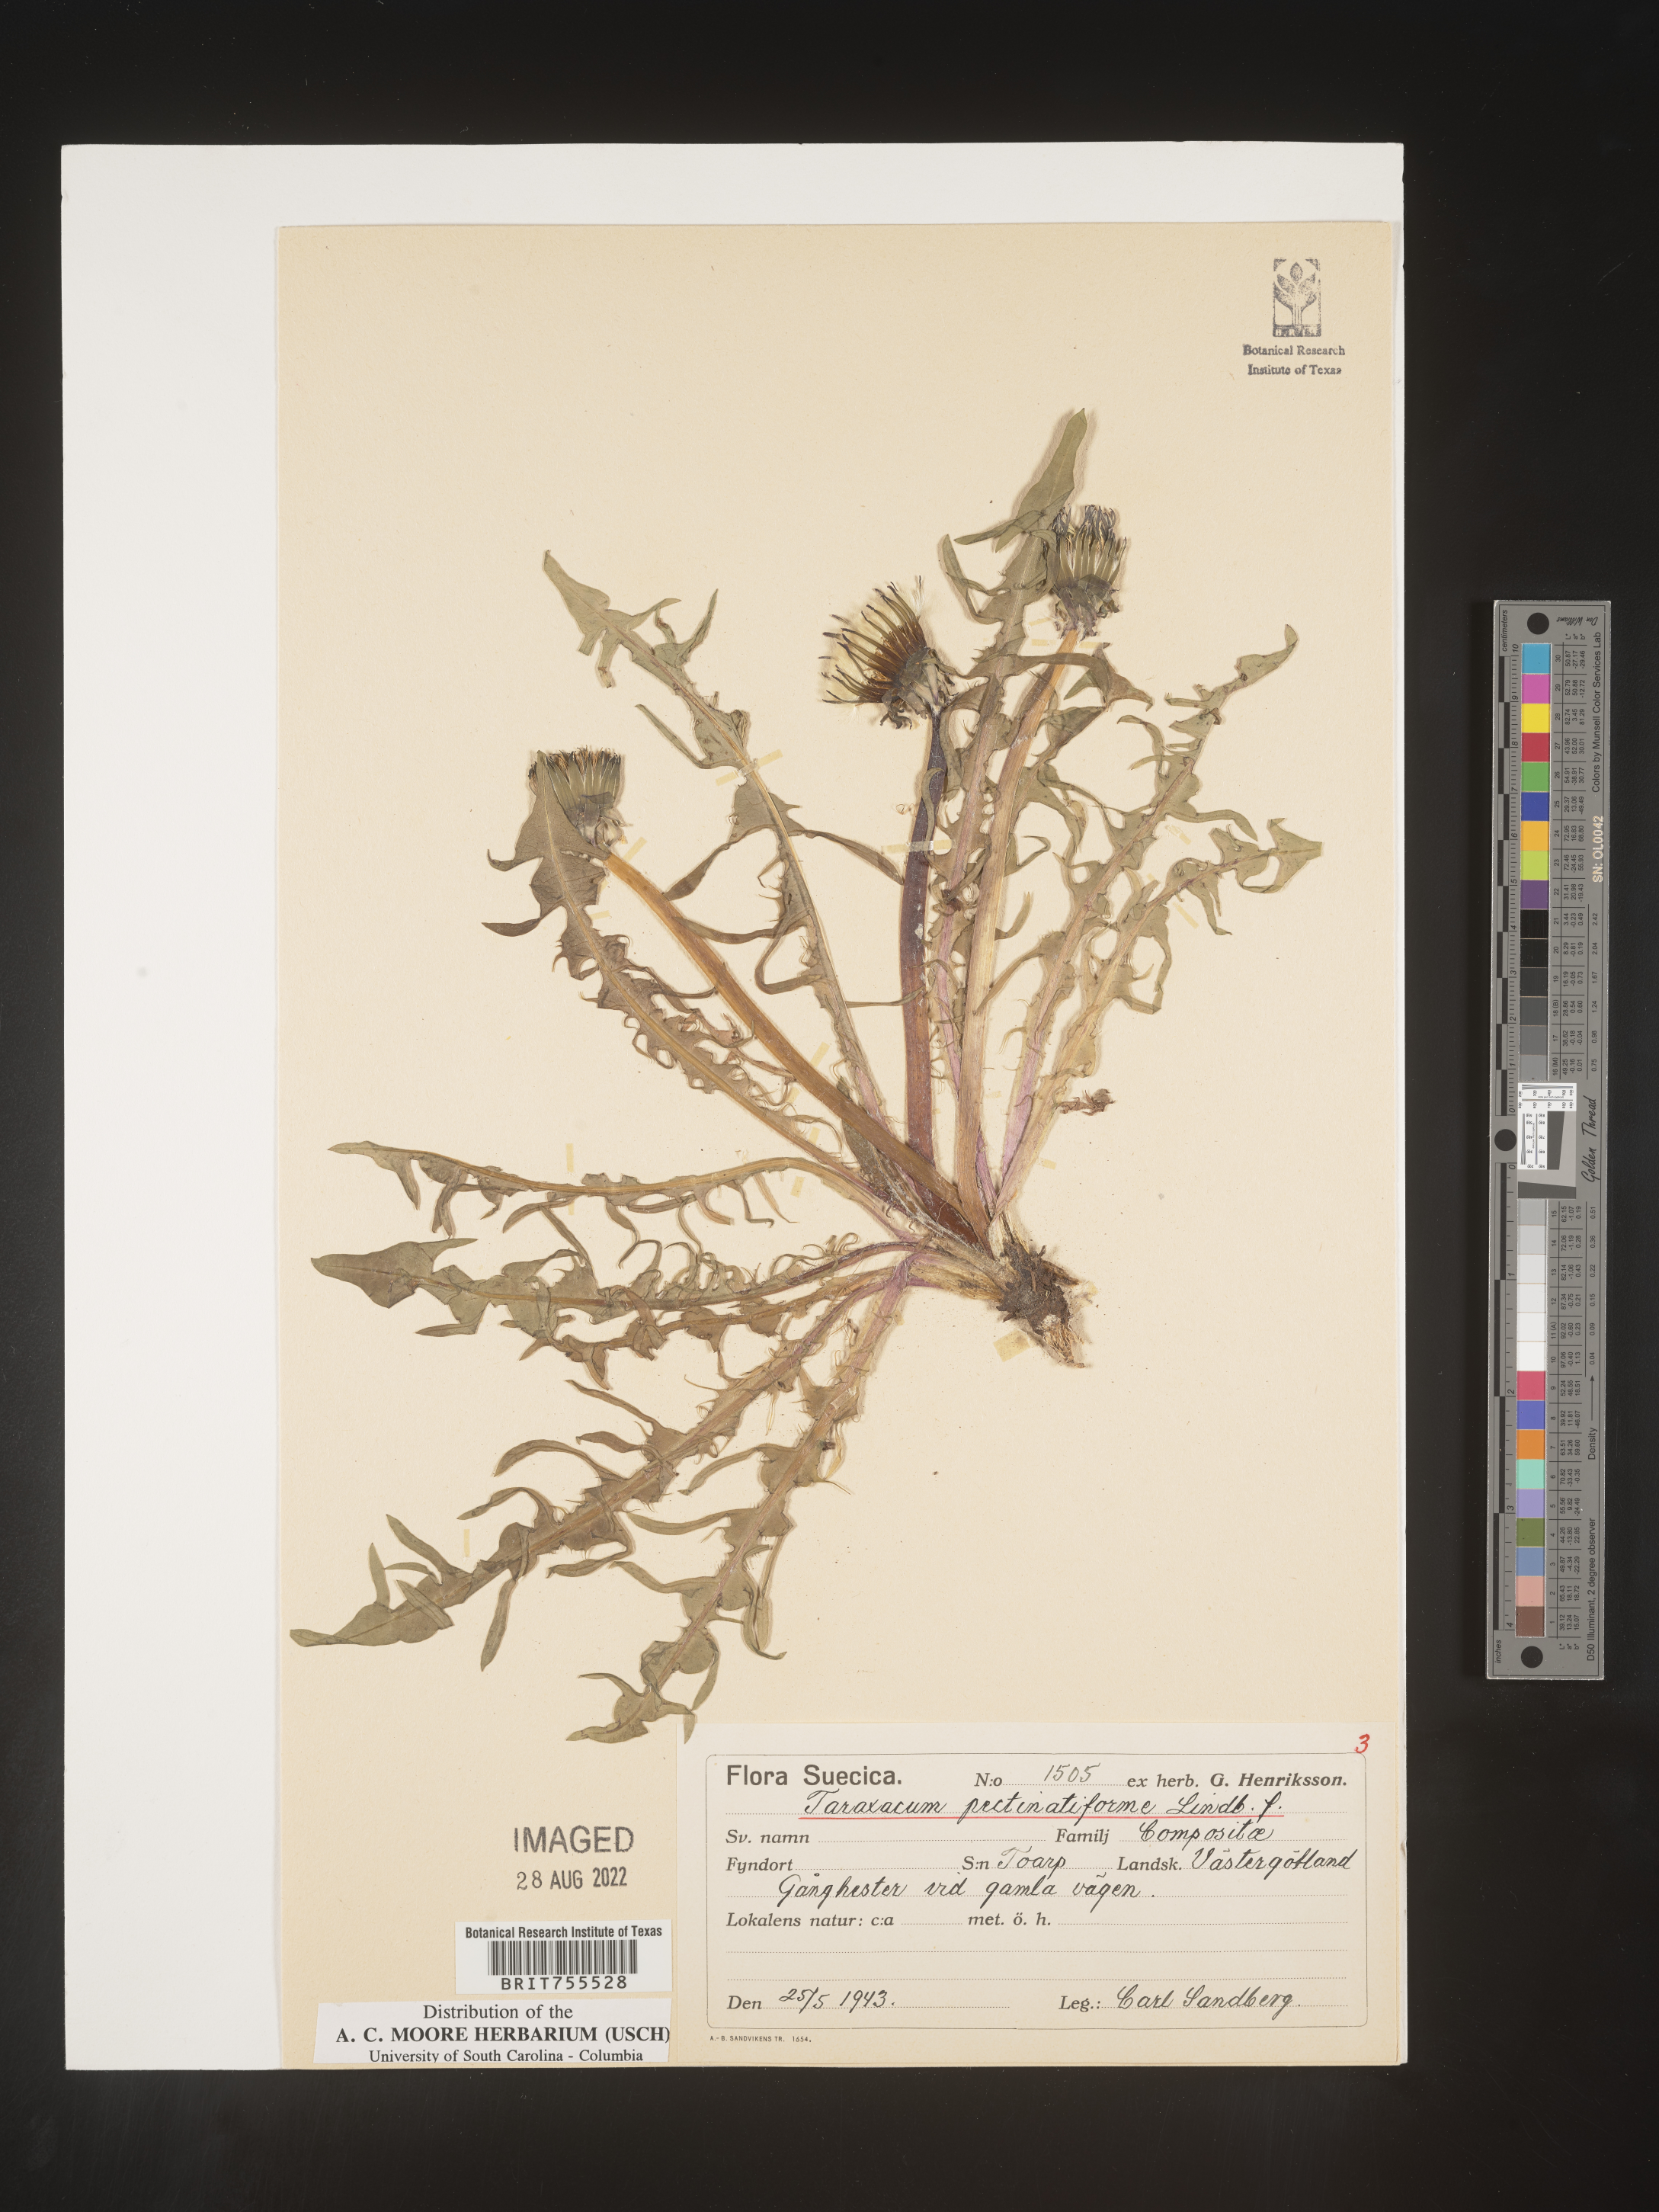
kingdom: Plantae
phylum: Tracheophyta
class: Magnoliopsida
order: Asterales
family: Asteraceae
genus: Taraxacum
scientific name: Taraxacum
